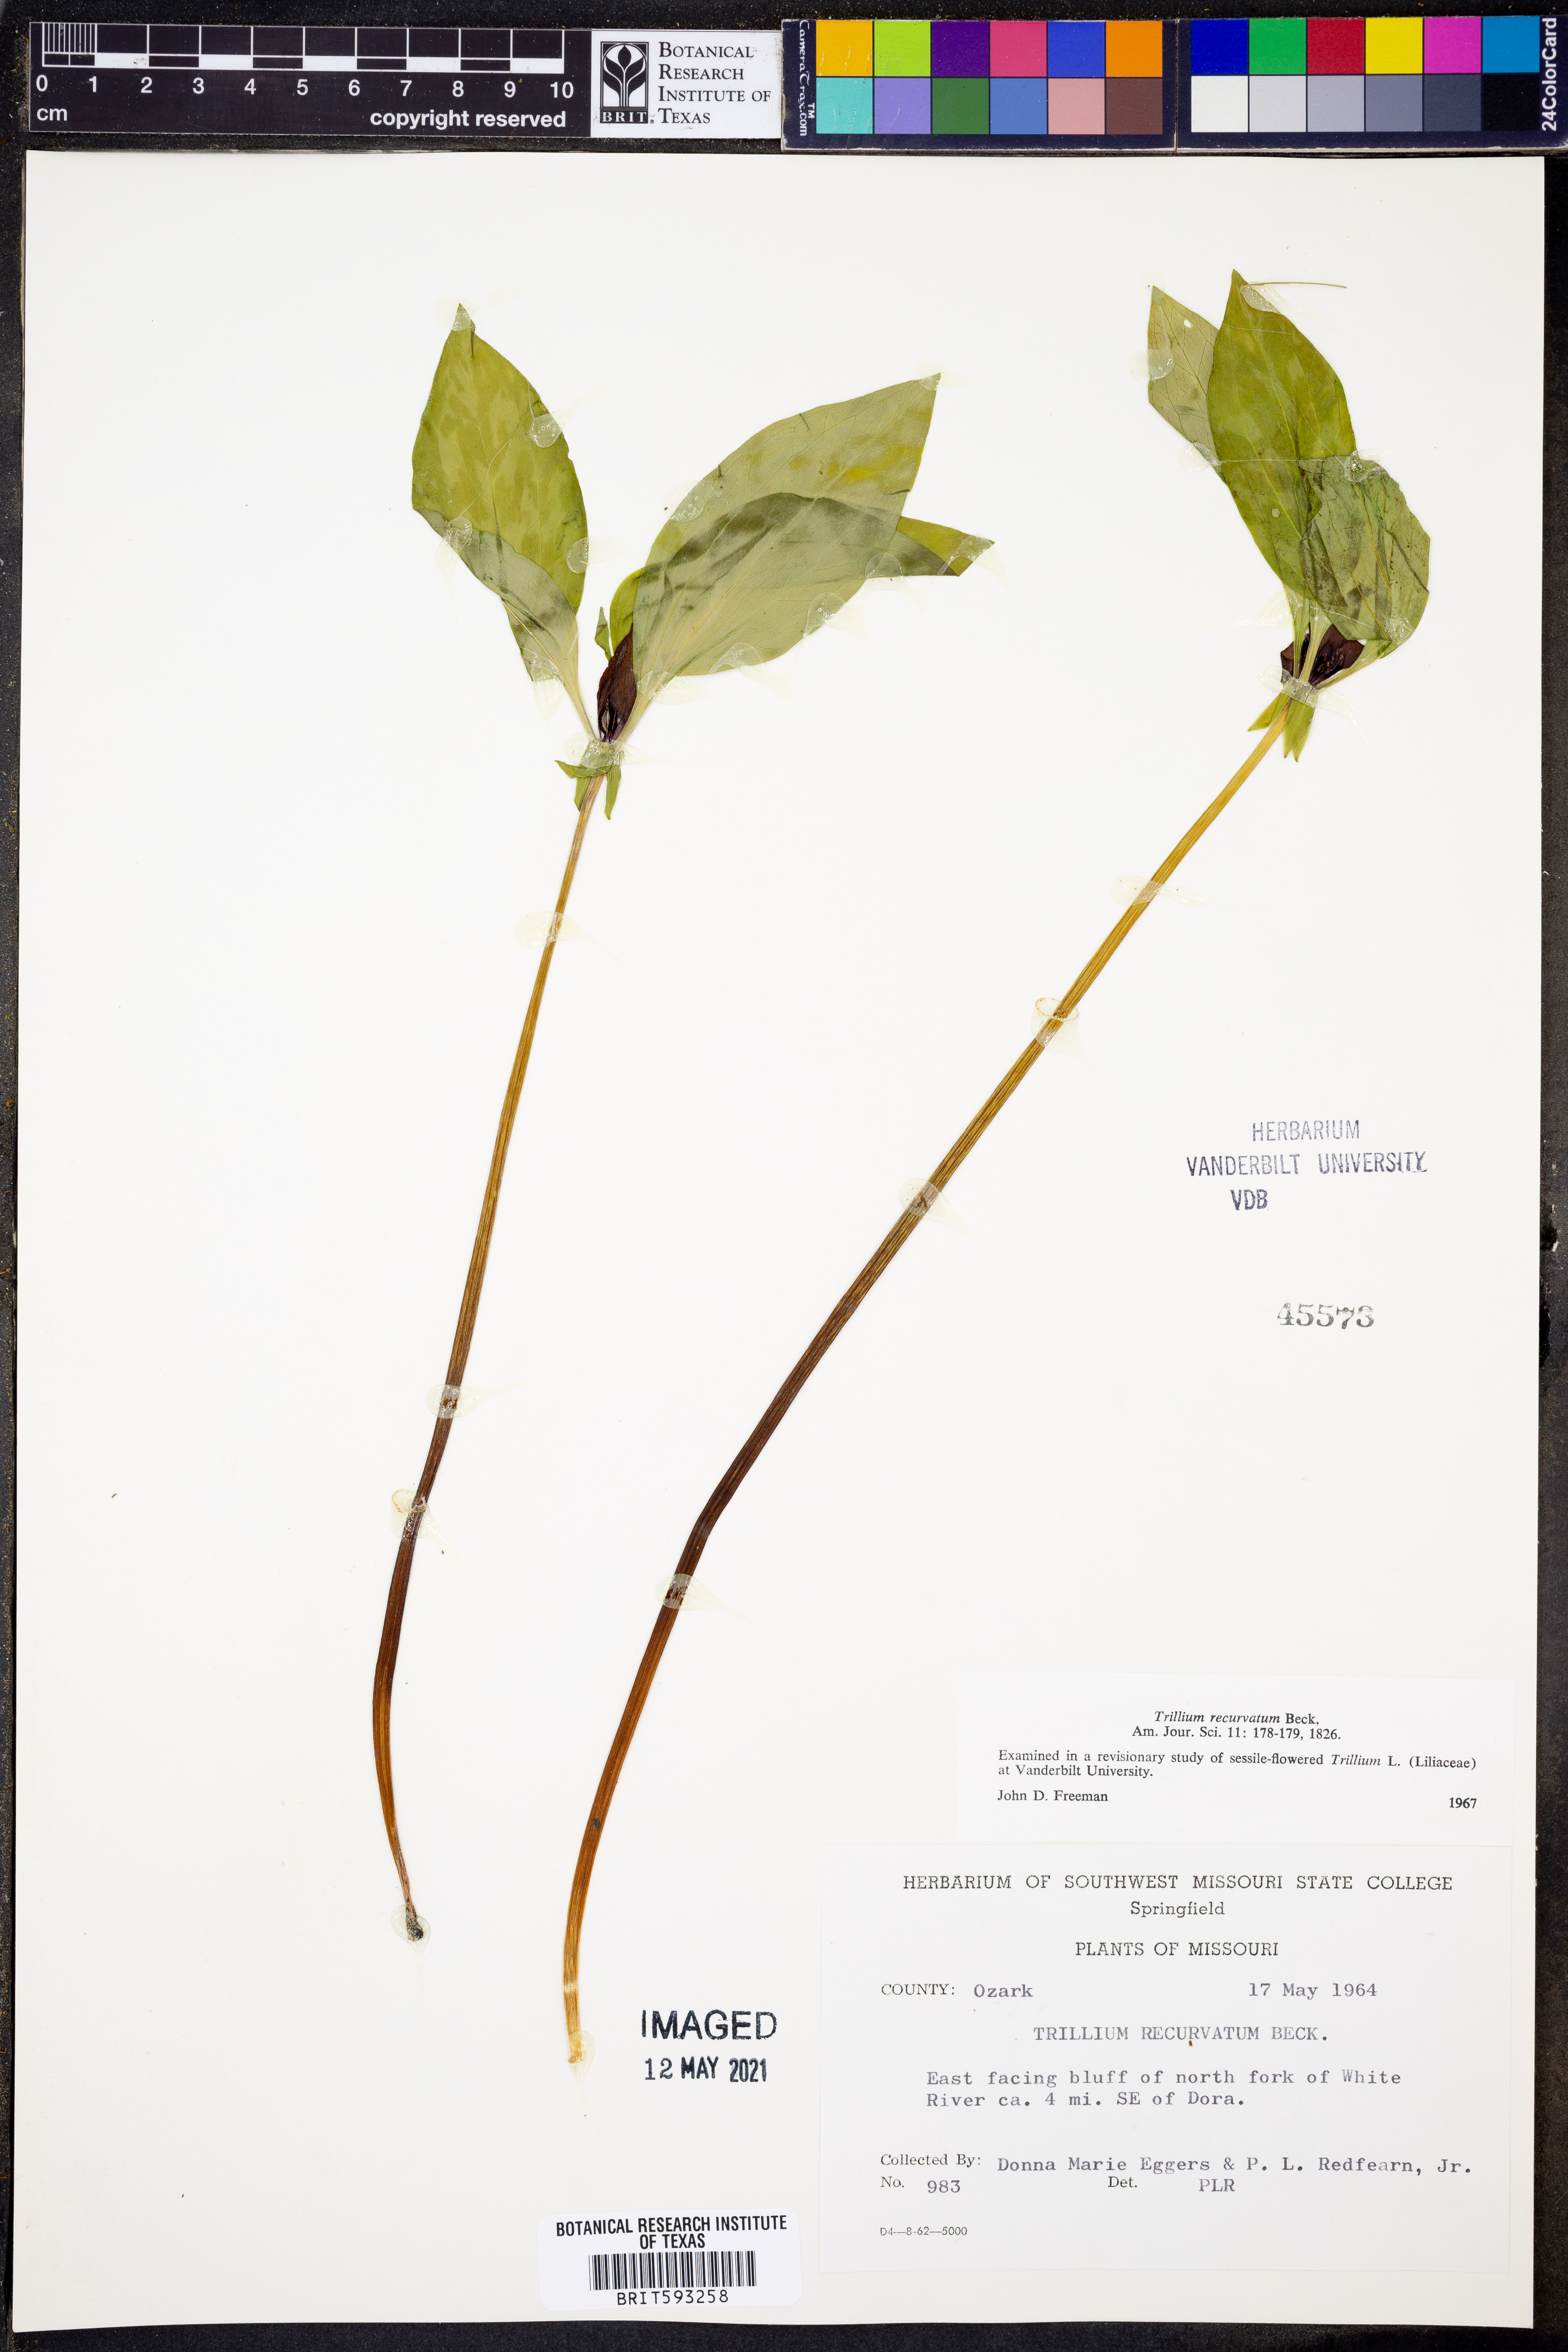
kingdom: Plantae
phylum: Tracheophyta
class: Liliopsida
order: Liliales
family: Melanthiaceae
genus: Trillium
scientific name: Trillium recurvatum
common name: Bloody butcher
